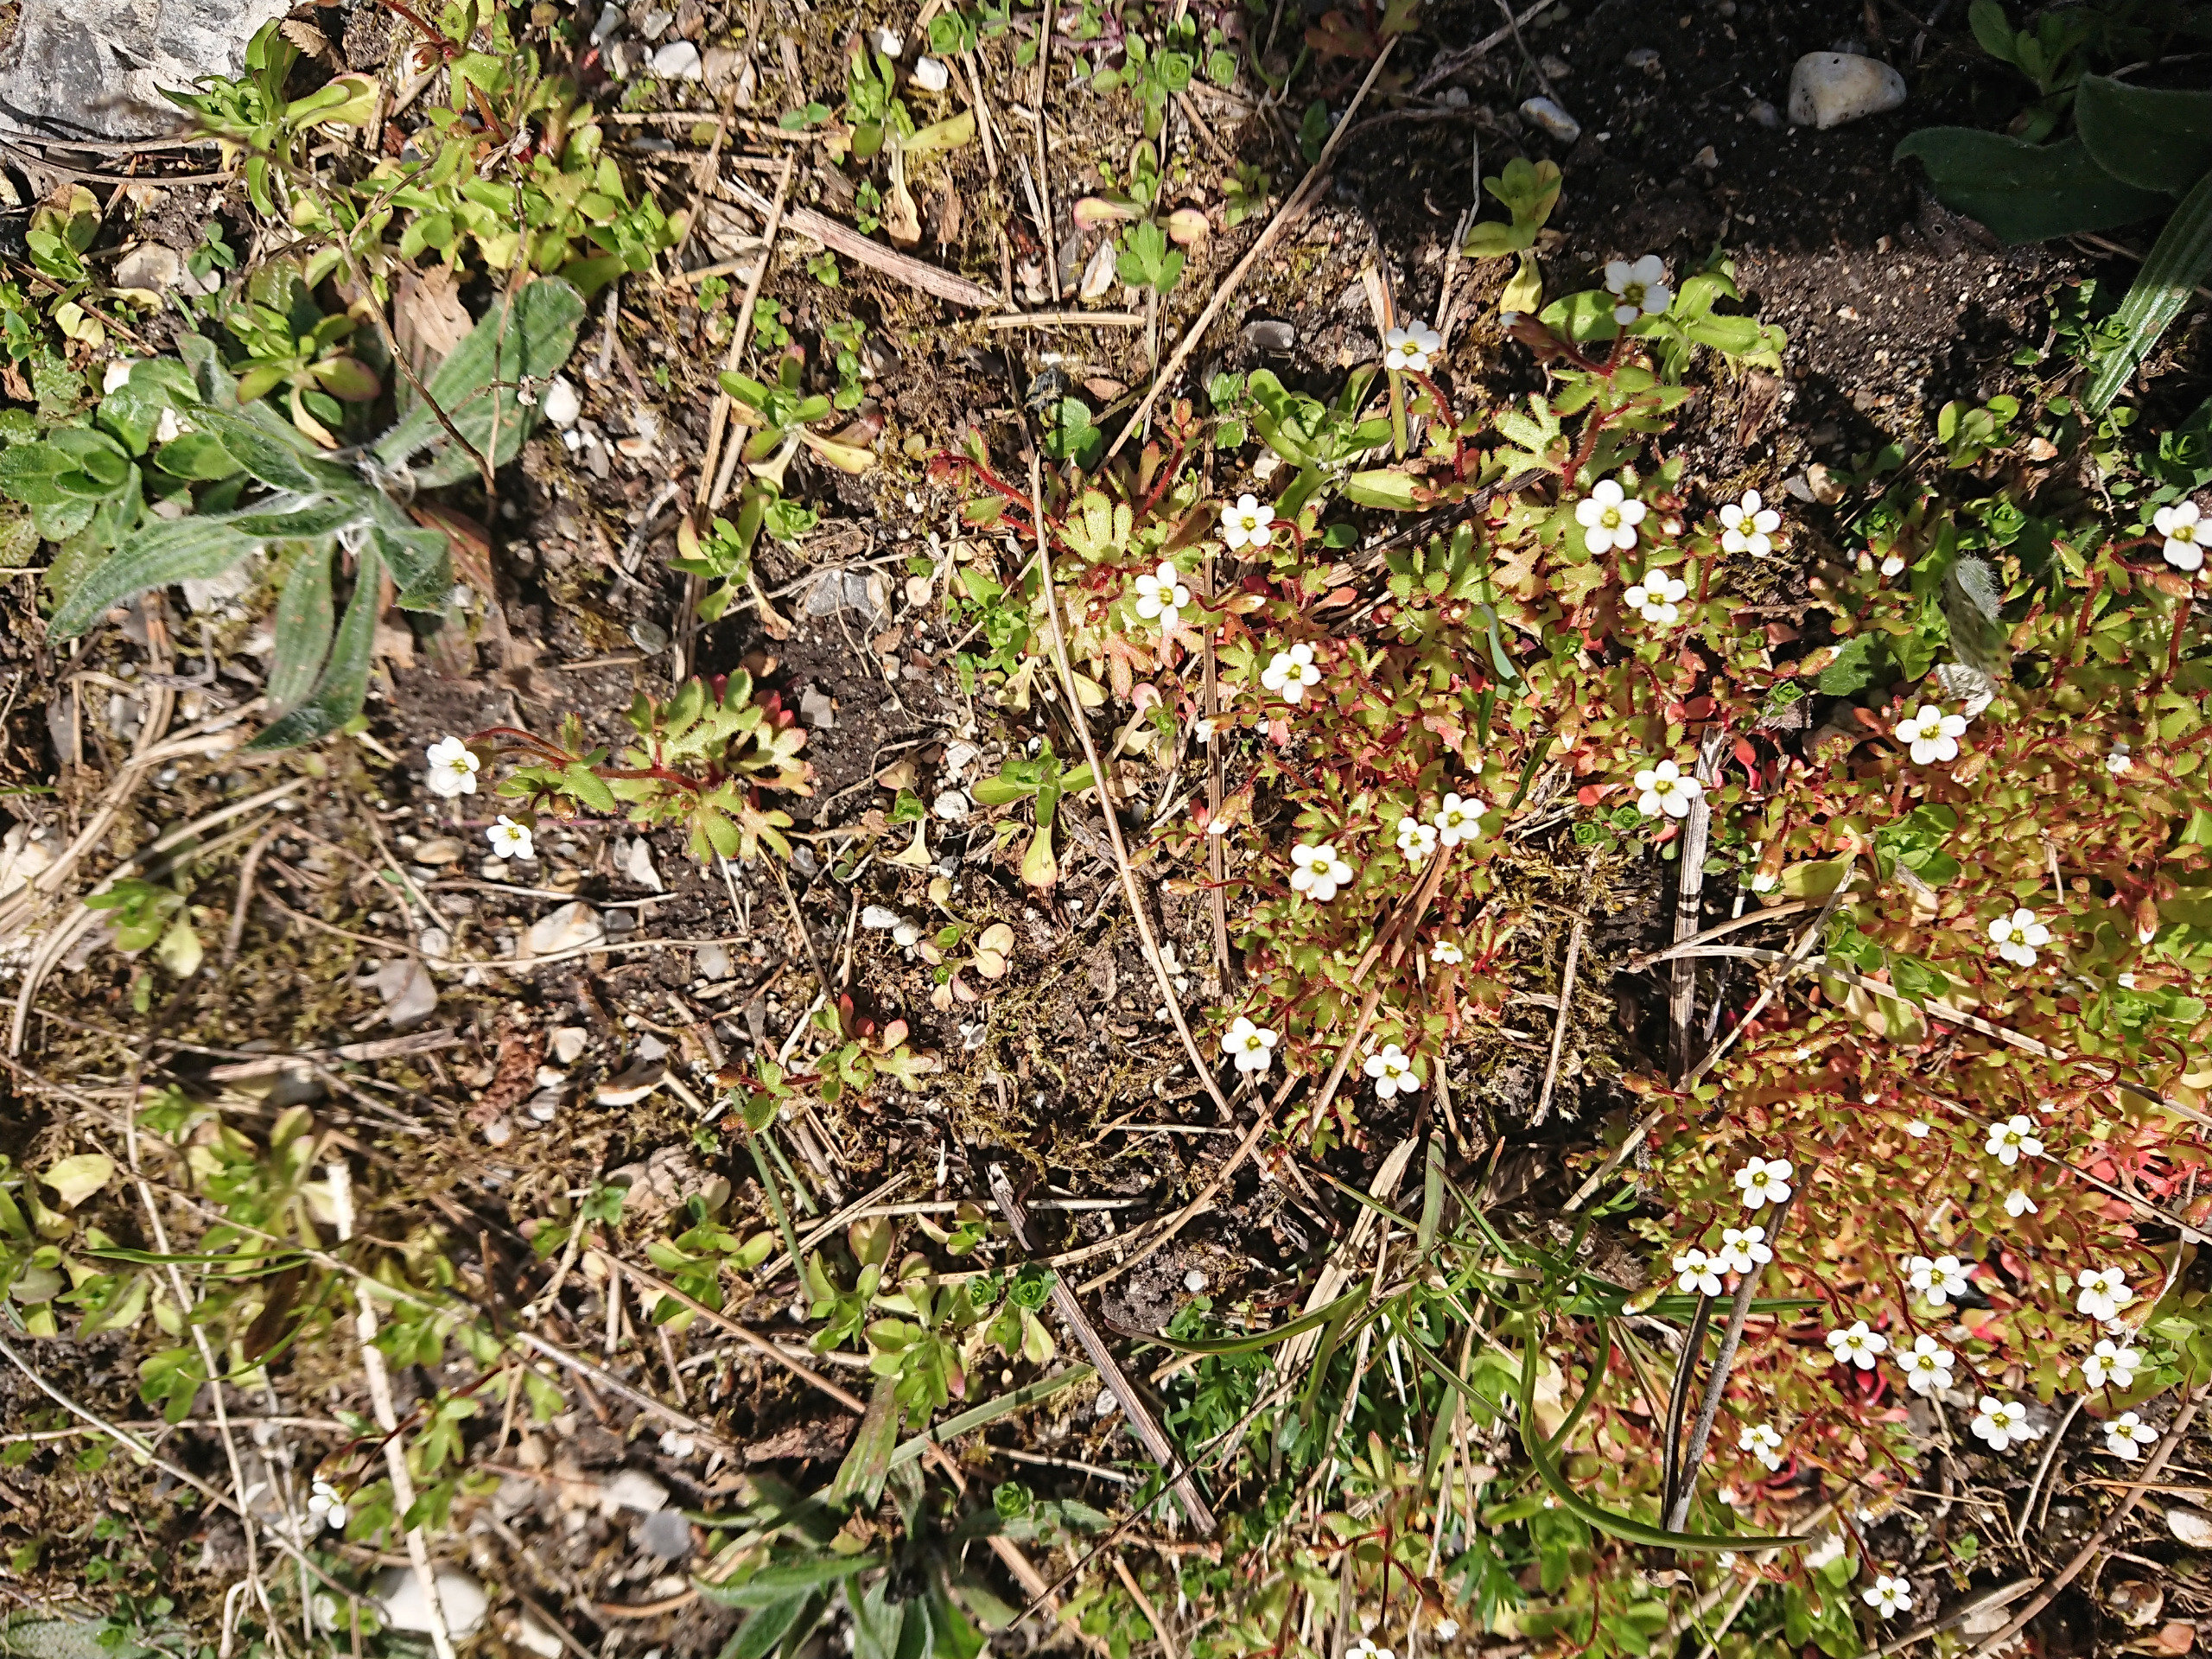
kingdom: Plantae
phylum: Tracheophyta
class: Magnoliopsida
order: Saxifragales
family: Saxifragaceae
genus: Saxifraga
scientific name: Saxifraga tridactylites
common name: Trekløft-stenbræk
